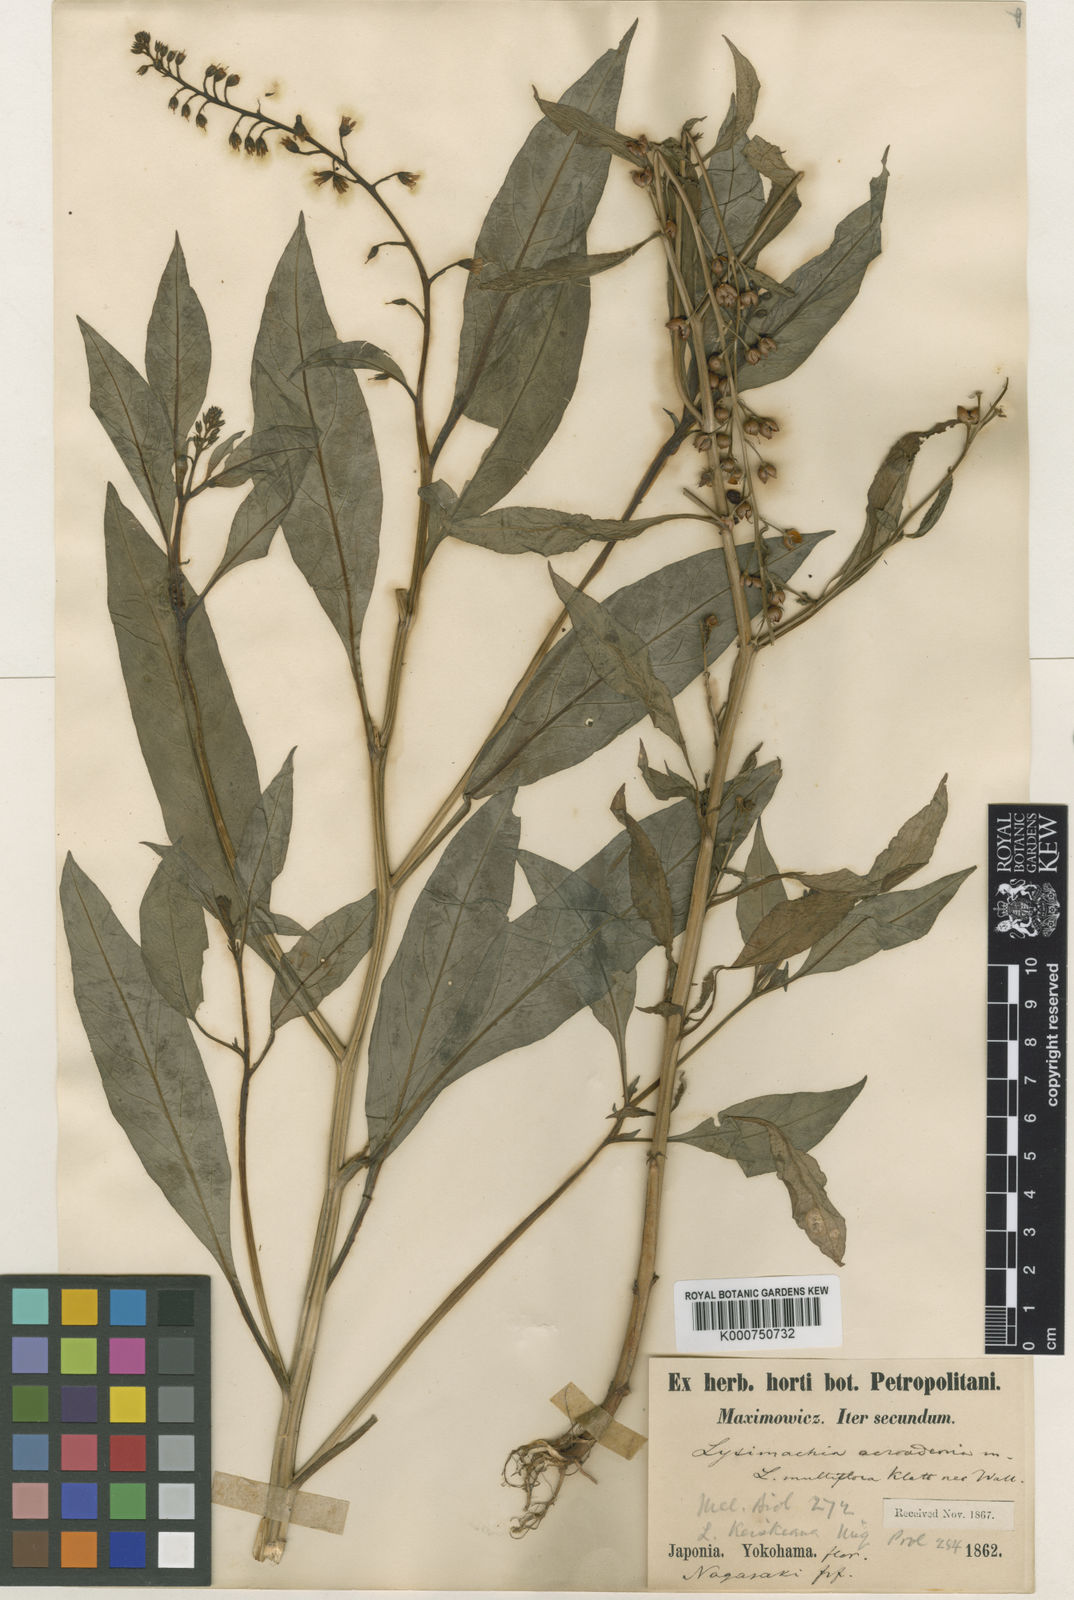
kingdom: Plantae
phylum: Tracheophyta
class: Magnoliopsida
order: Ericales
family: Primulaceae
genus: Lysimachia
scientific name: Lysimachia acroadenia
